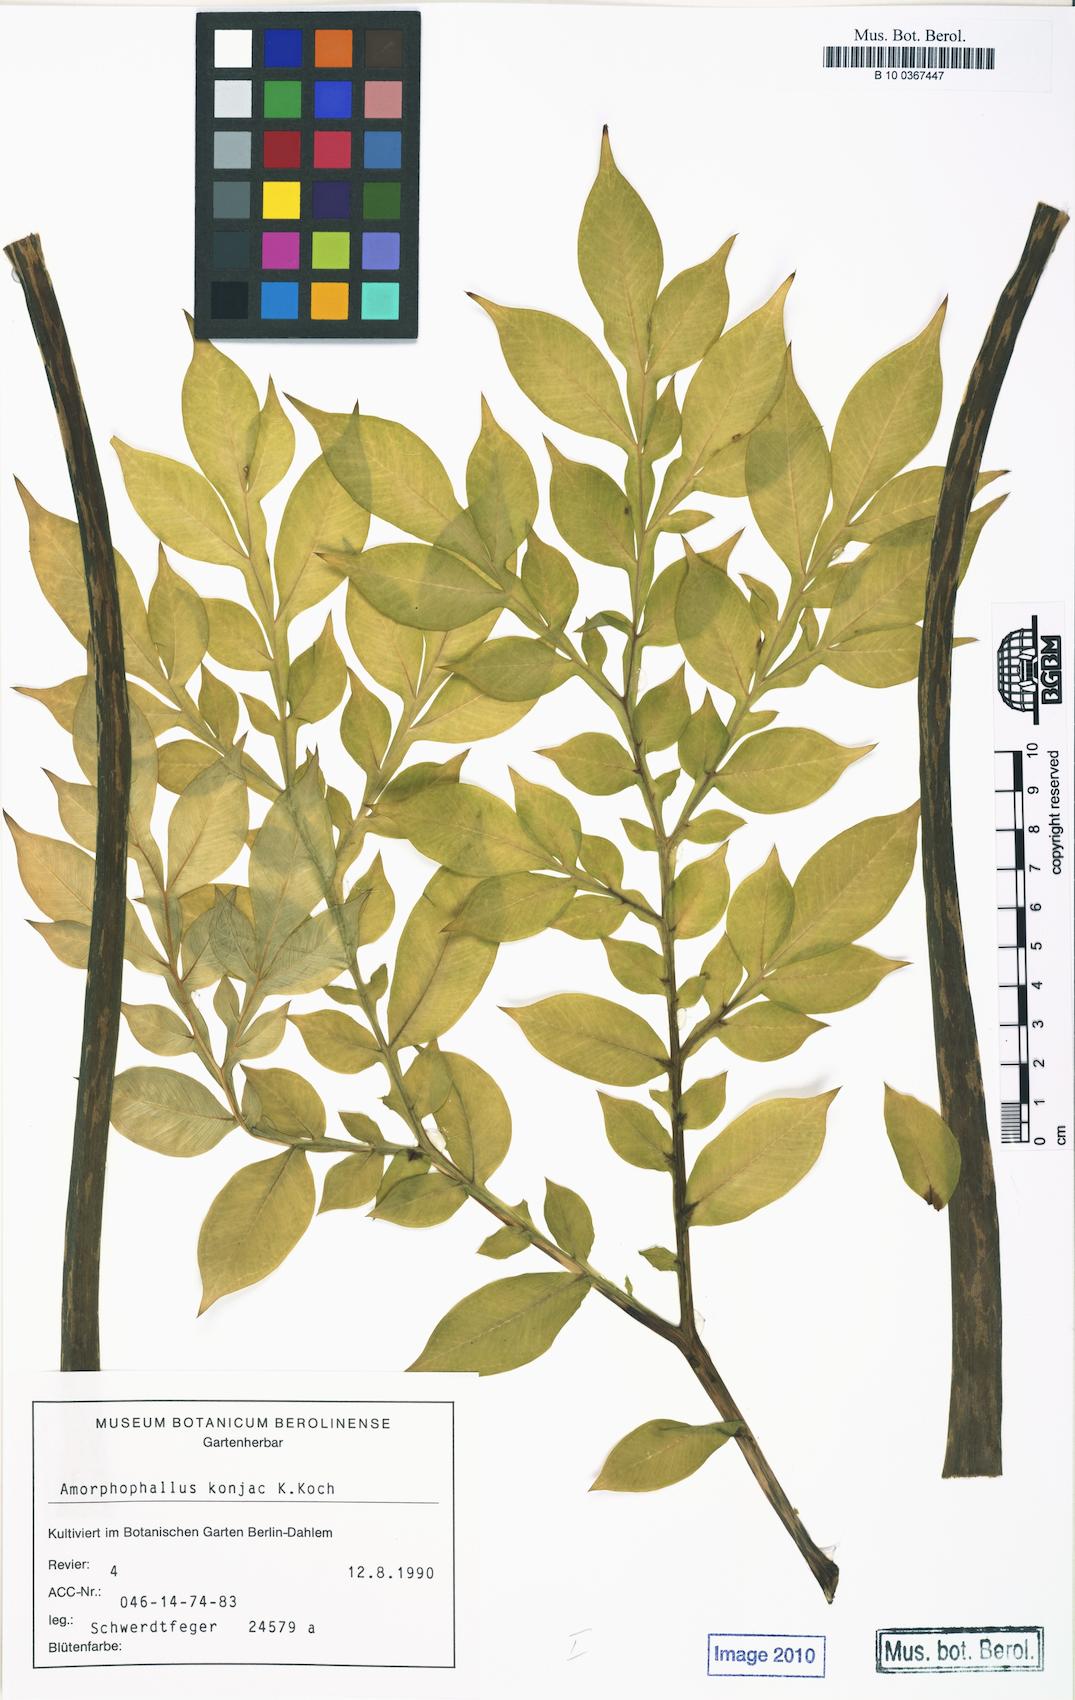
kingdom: Plantae
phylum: Tracheophyta
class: Liliopsida
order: Alismatales
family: Araceae
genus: Amorphophallus
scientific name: Amorphophallus konjac
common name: Umbrella arum
